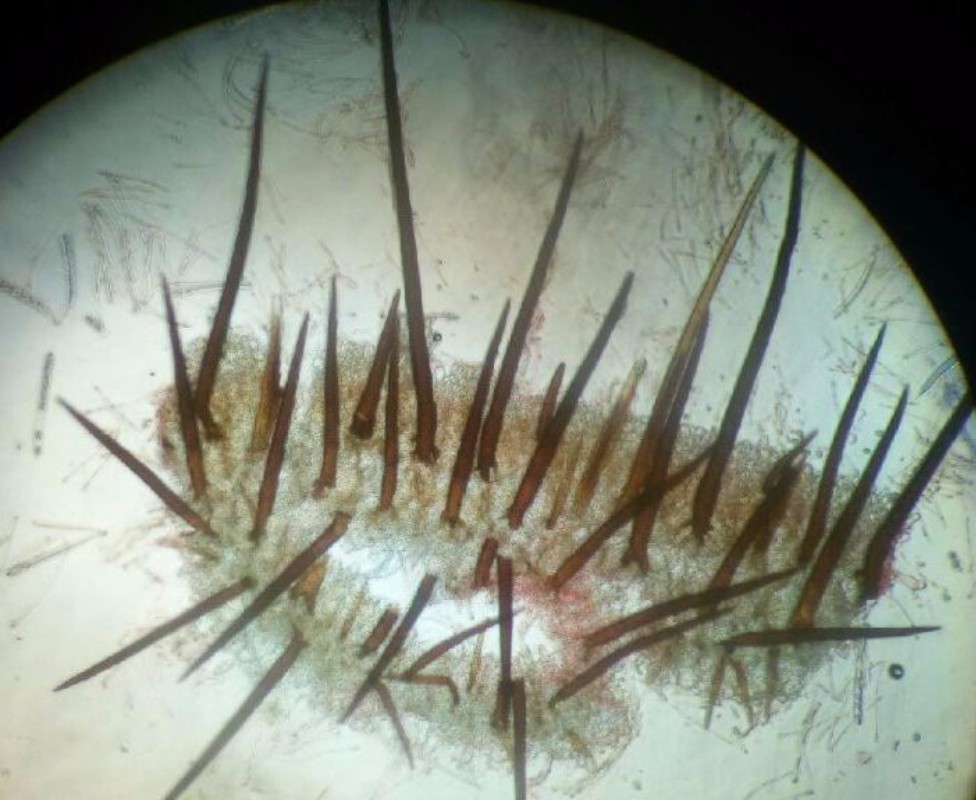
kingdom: Fungi
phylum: Ascomycota
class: Pezizomycetes
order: Pezizales
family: Pyronemataceae
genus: Scutellinia
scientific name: Scutellinia
